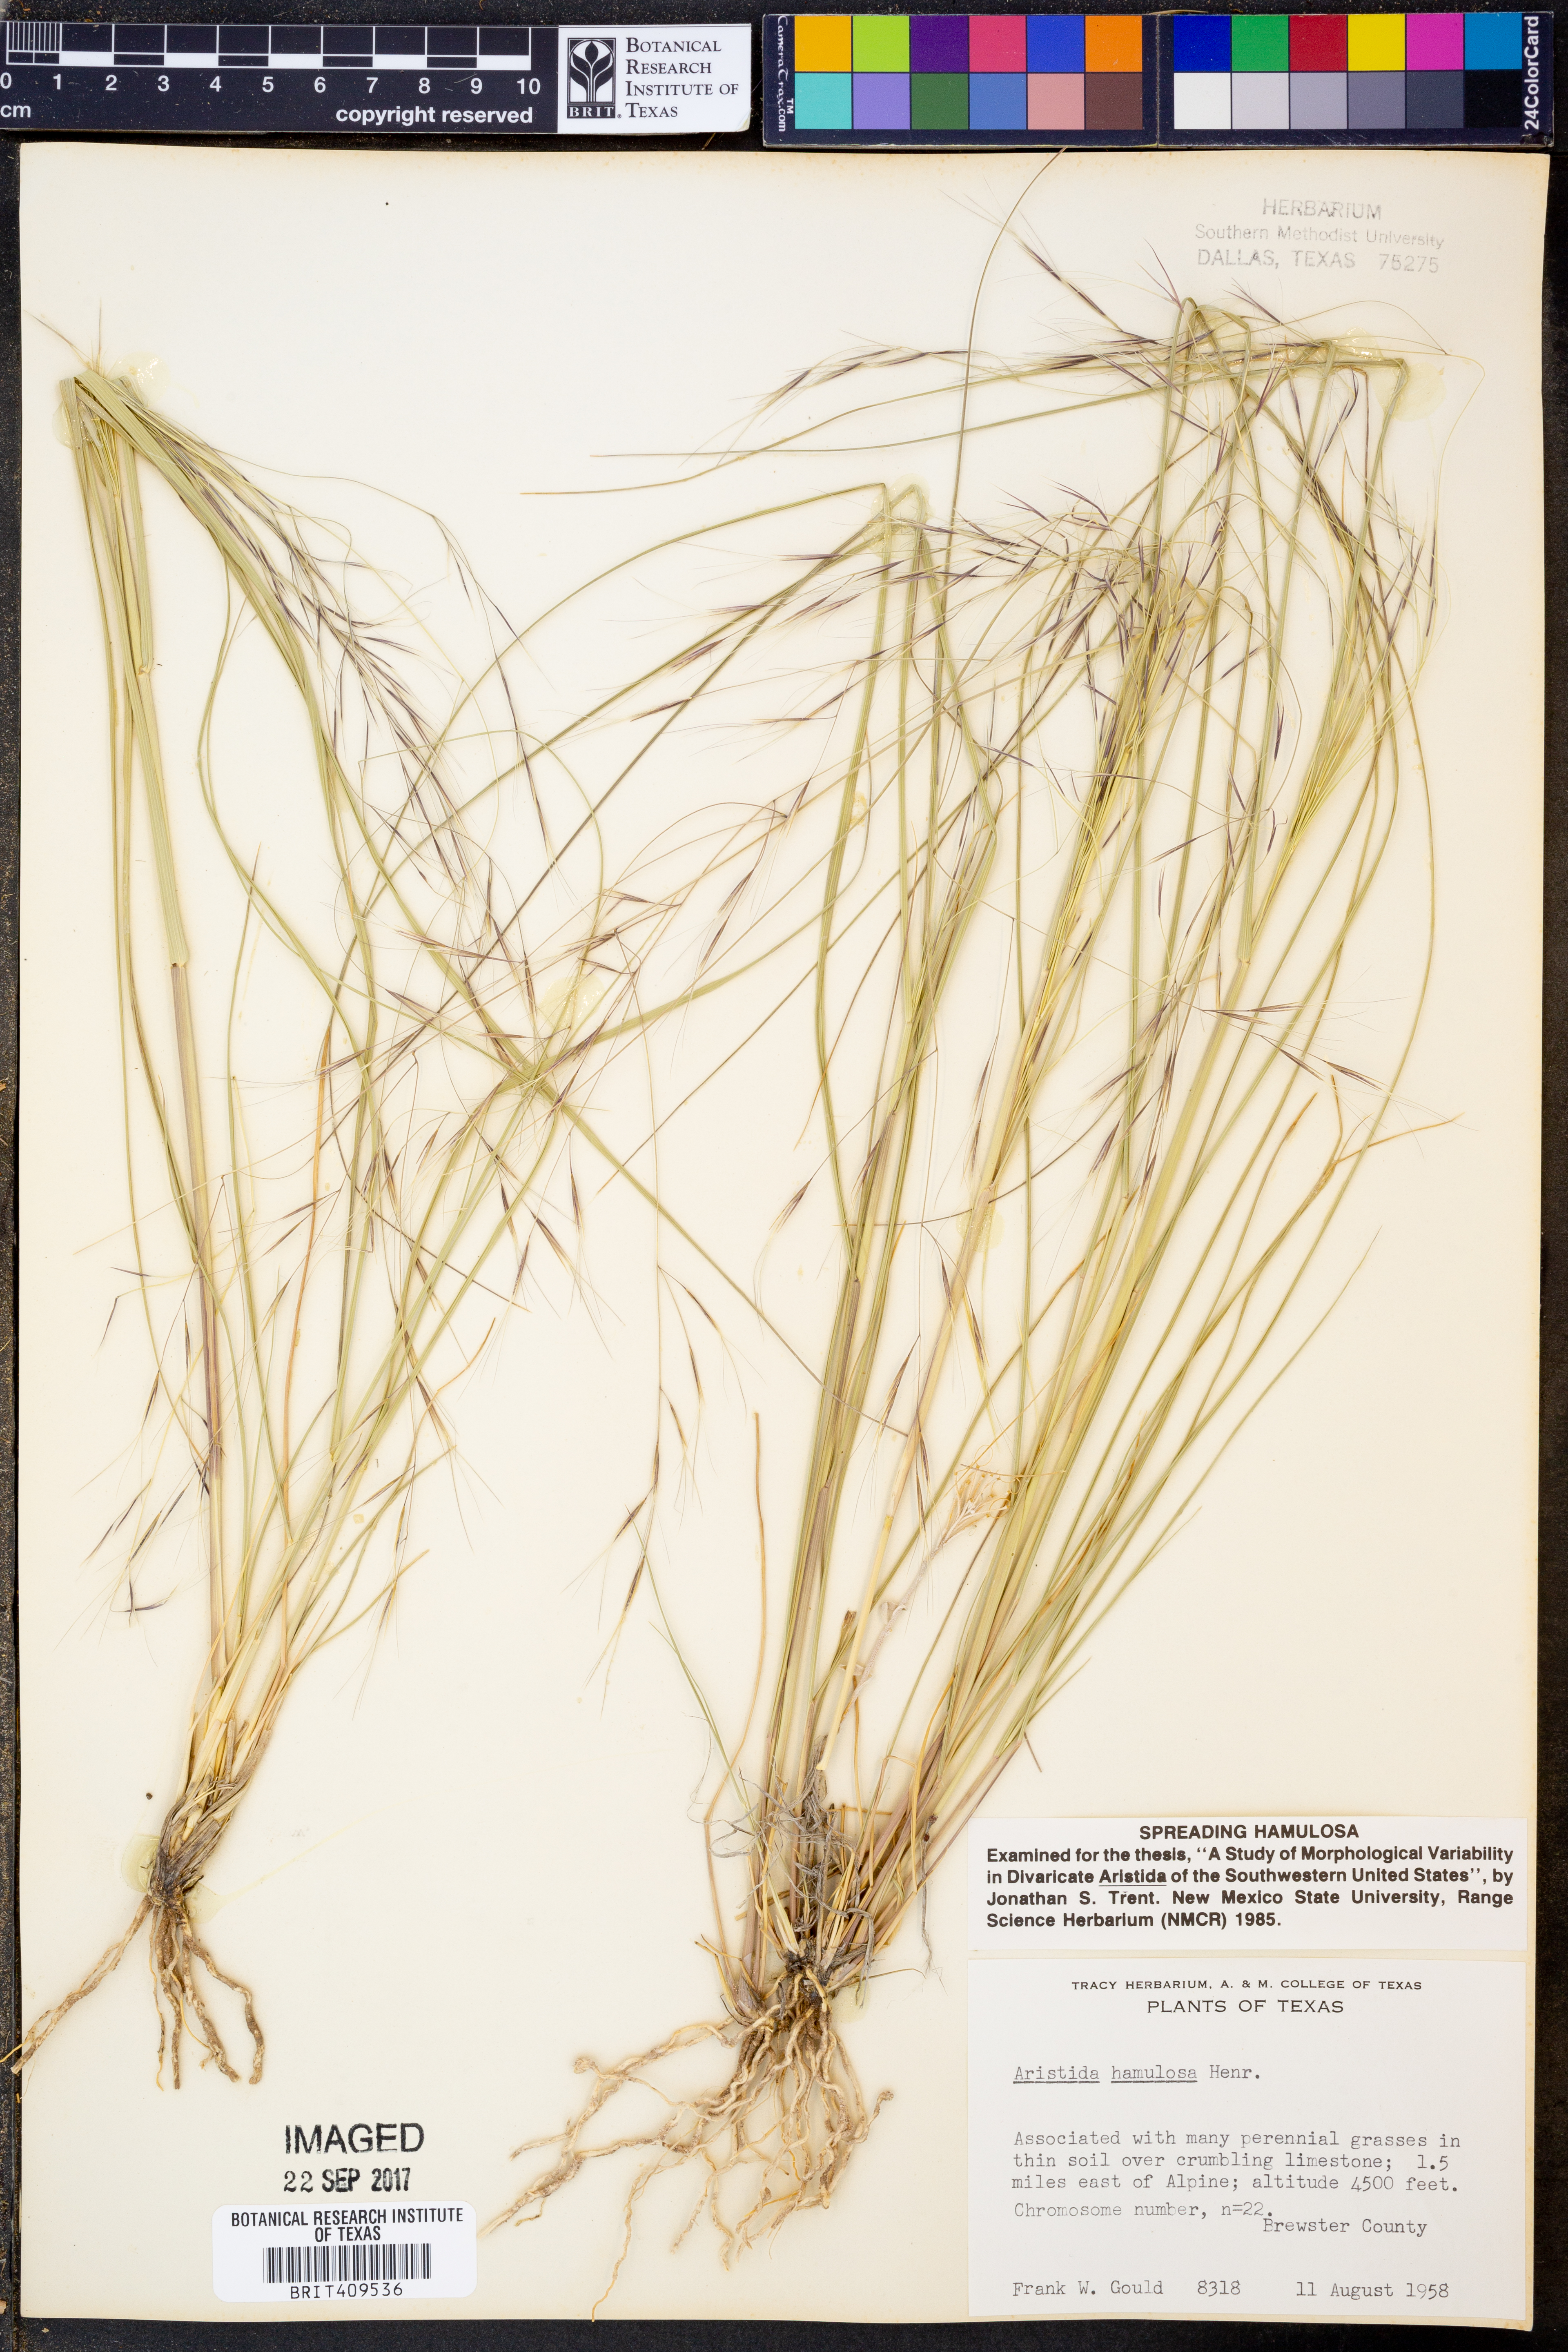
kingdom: Plantae
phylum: Tracheophyta
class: Liliopsida
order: Poales
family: Poaceae
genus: Aristida
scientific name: Aristida hamulosa
